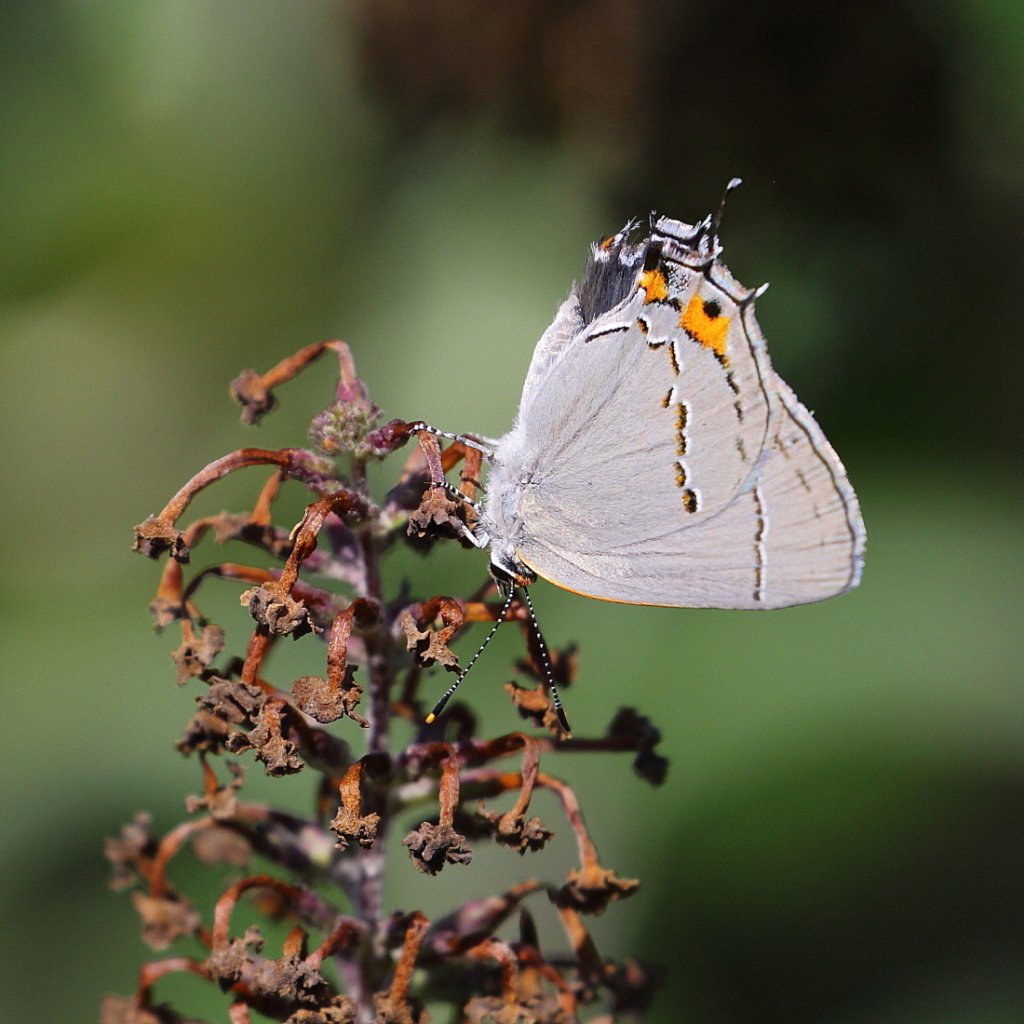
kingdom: Animalia
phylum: Arthropoda
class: Insecta
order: Lepidoptera
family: Lycaenidae
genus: Strymon
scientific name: Strymon melinus
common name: Gray Hairstreak
